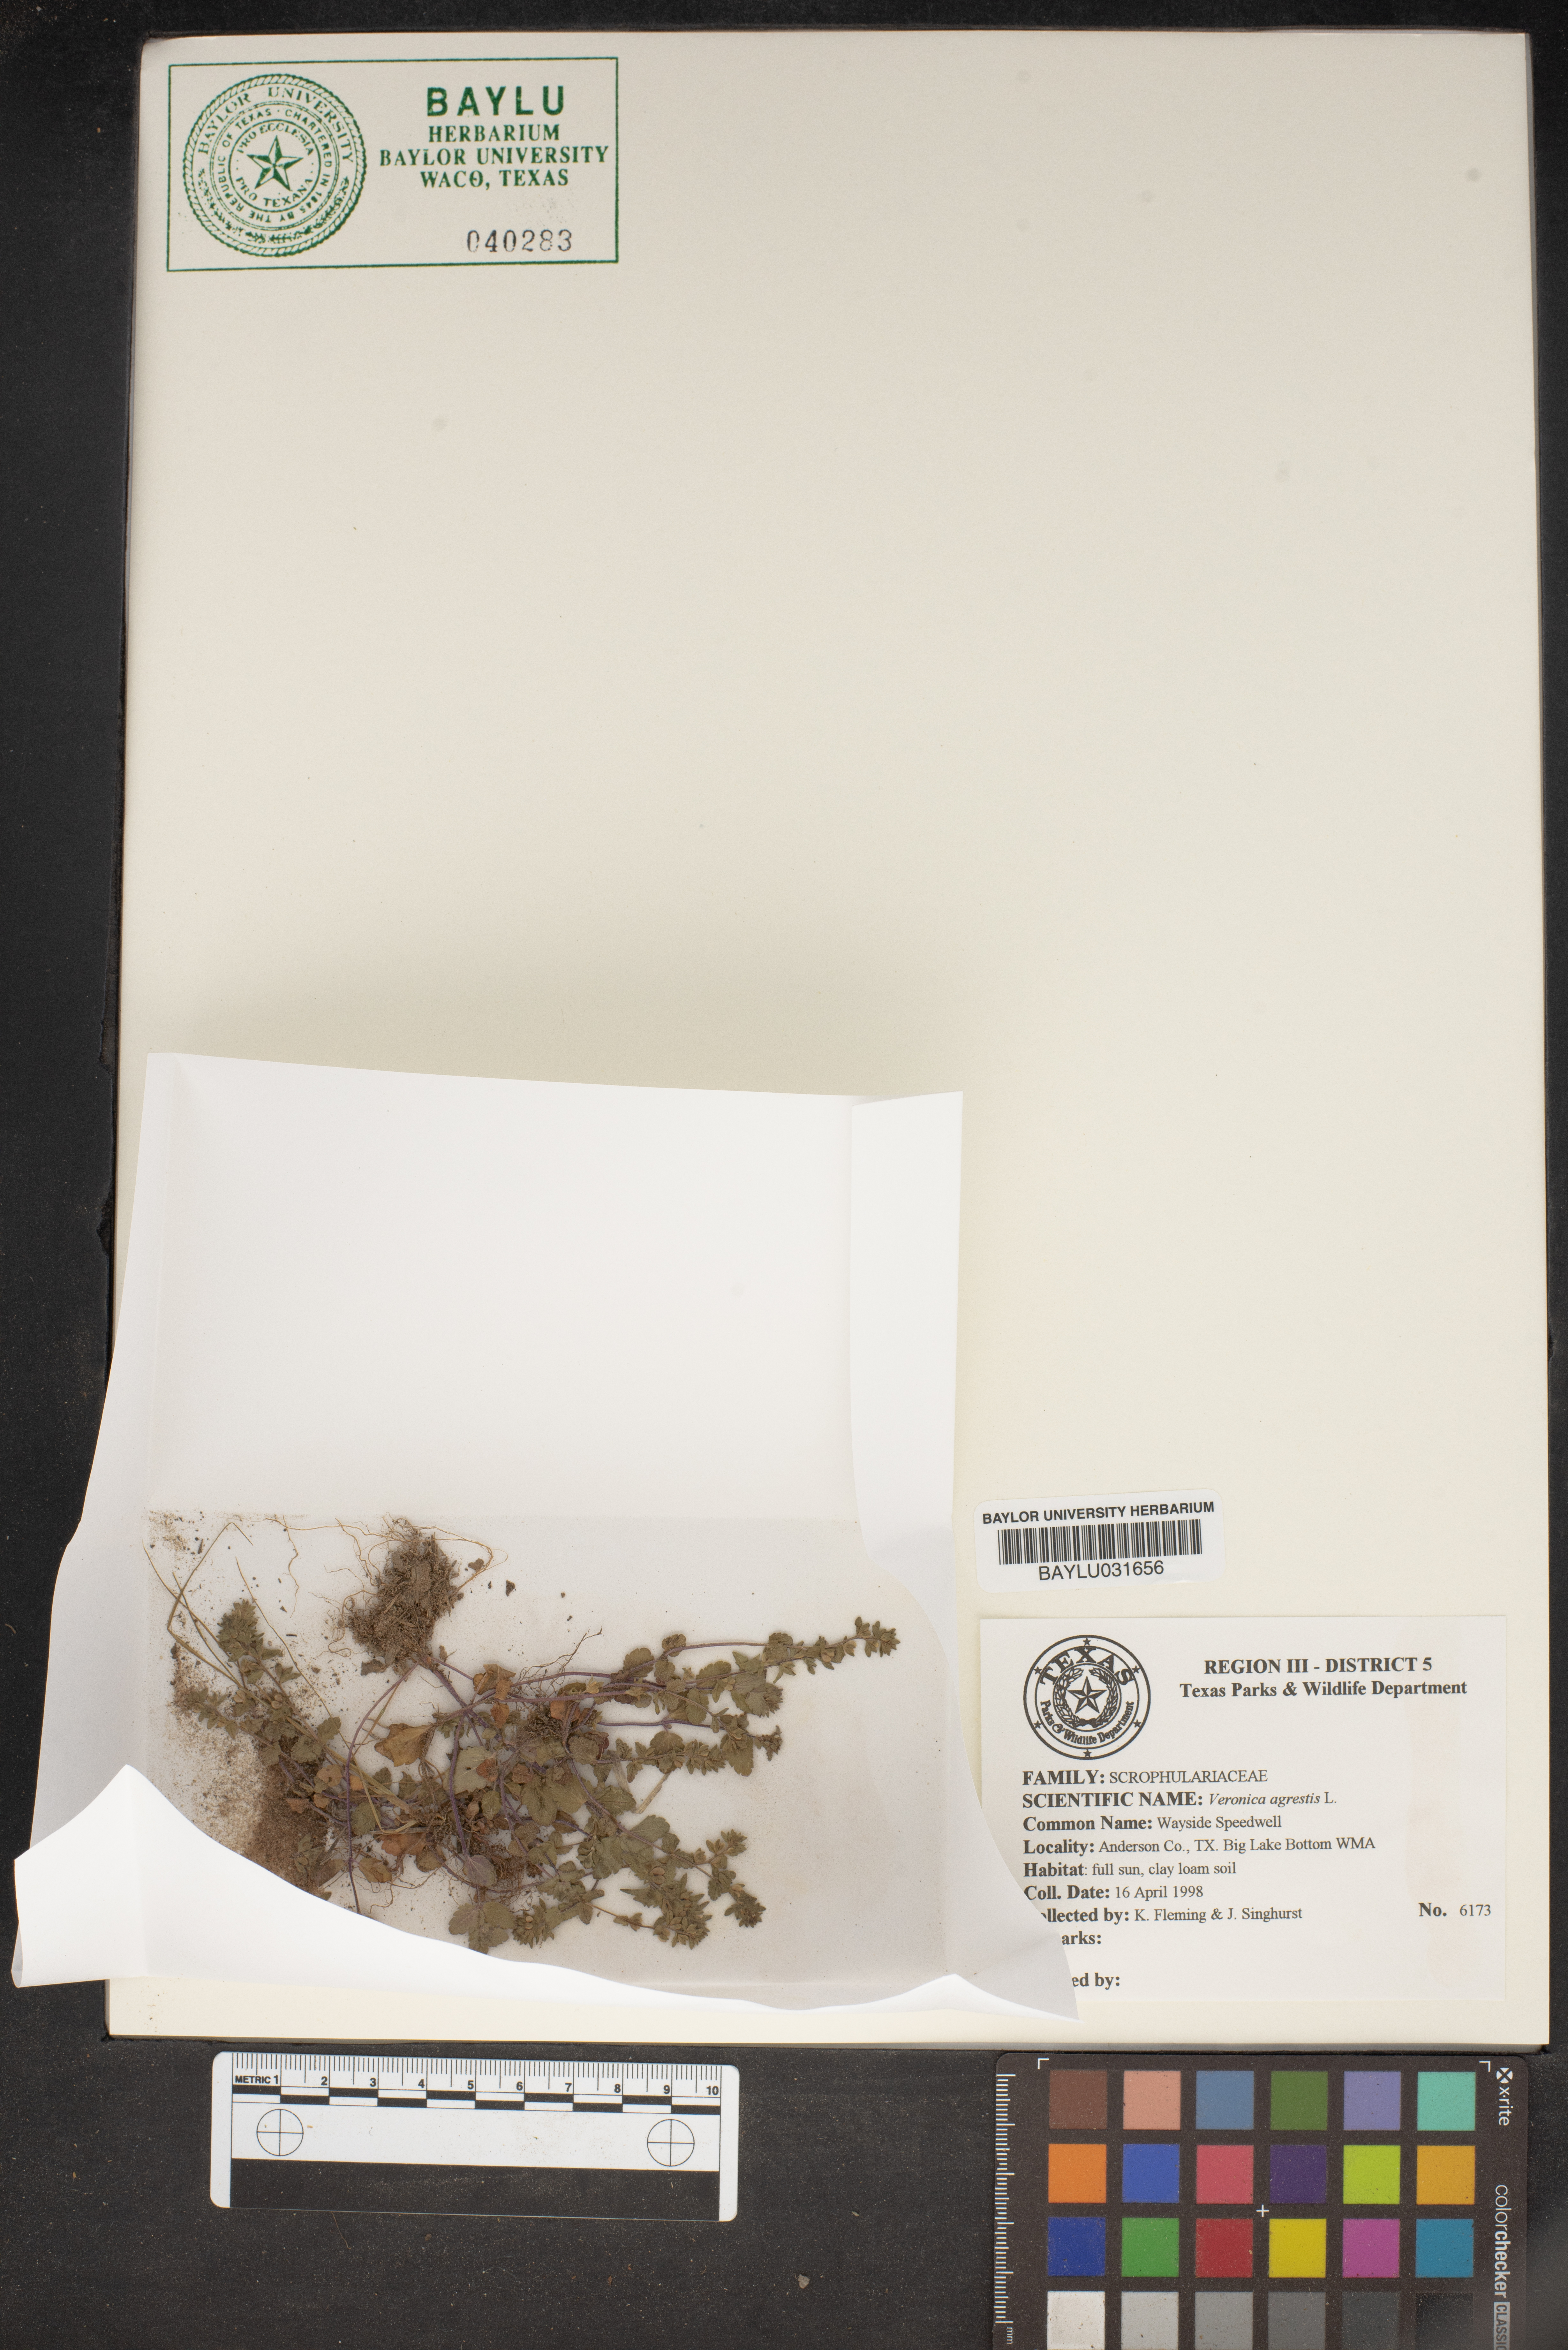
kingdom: Plantae
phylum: Tracheophyta
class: Magnoliopsida
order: Lamiales
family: Plantaginaceae
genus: Veronica
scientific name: Veronica agrestis
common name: Green field-speedwell
